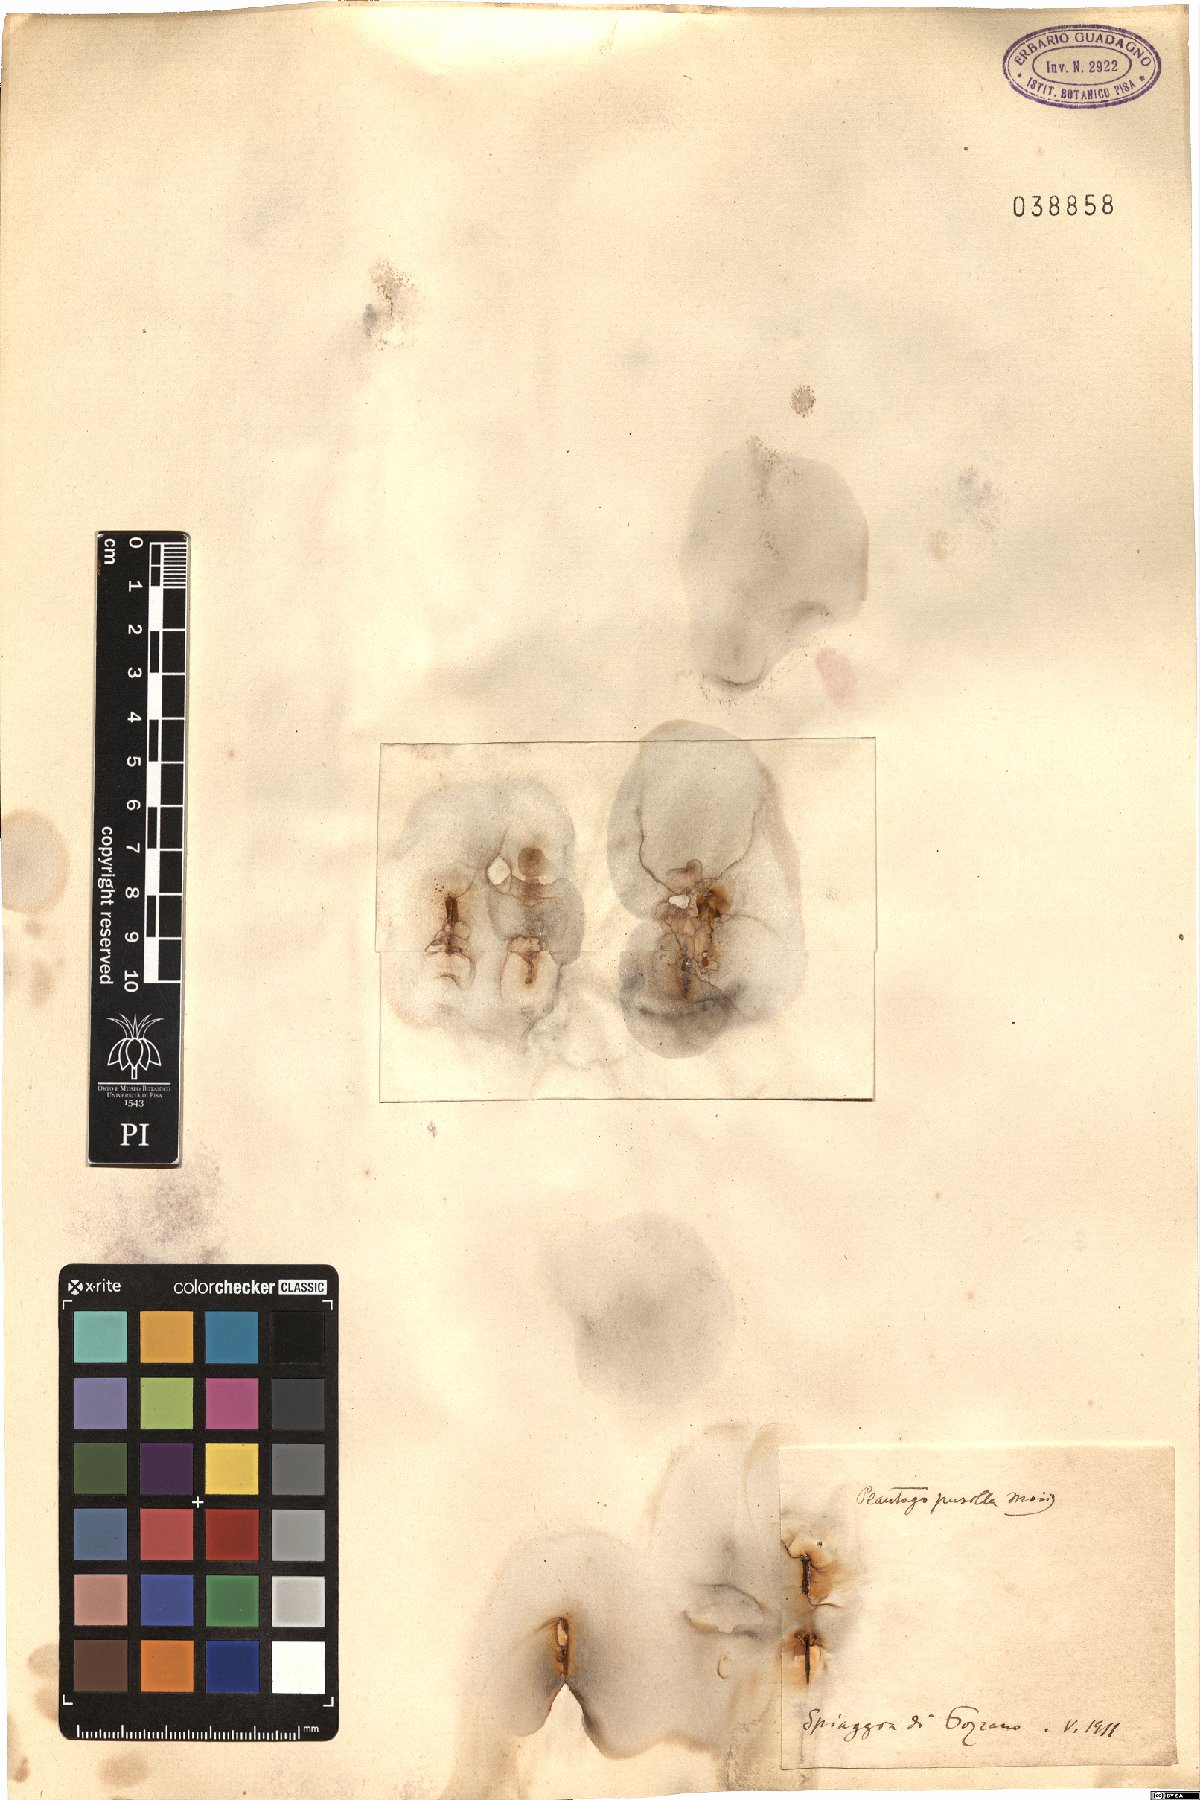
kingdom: Plantae
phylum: Tracheophyta
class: Magnoliopsida
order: Lamiales
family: Plantaginaceae
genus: Plantago
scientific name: Plantago tenuiflora
